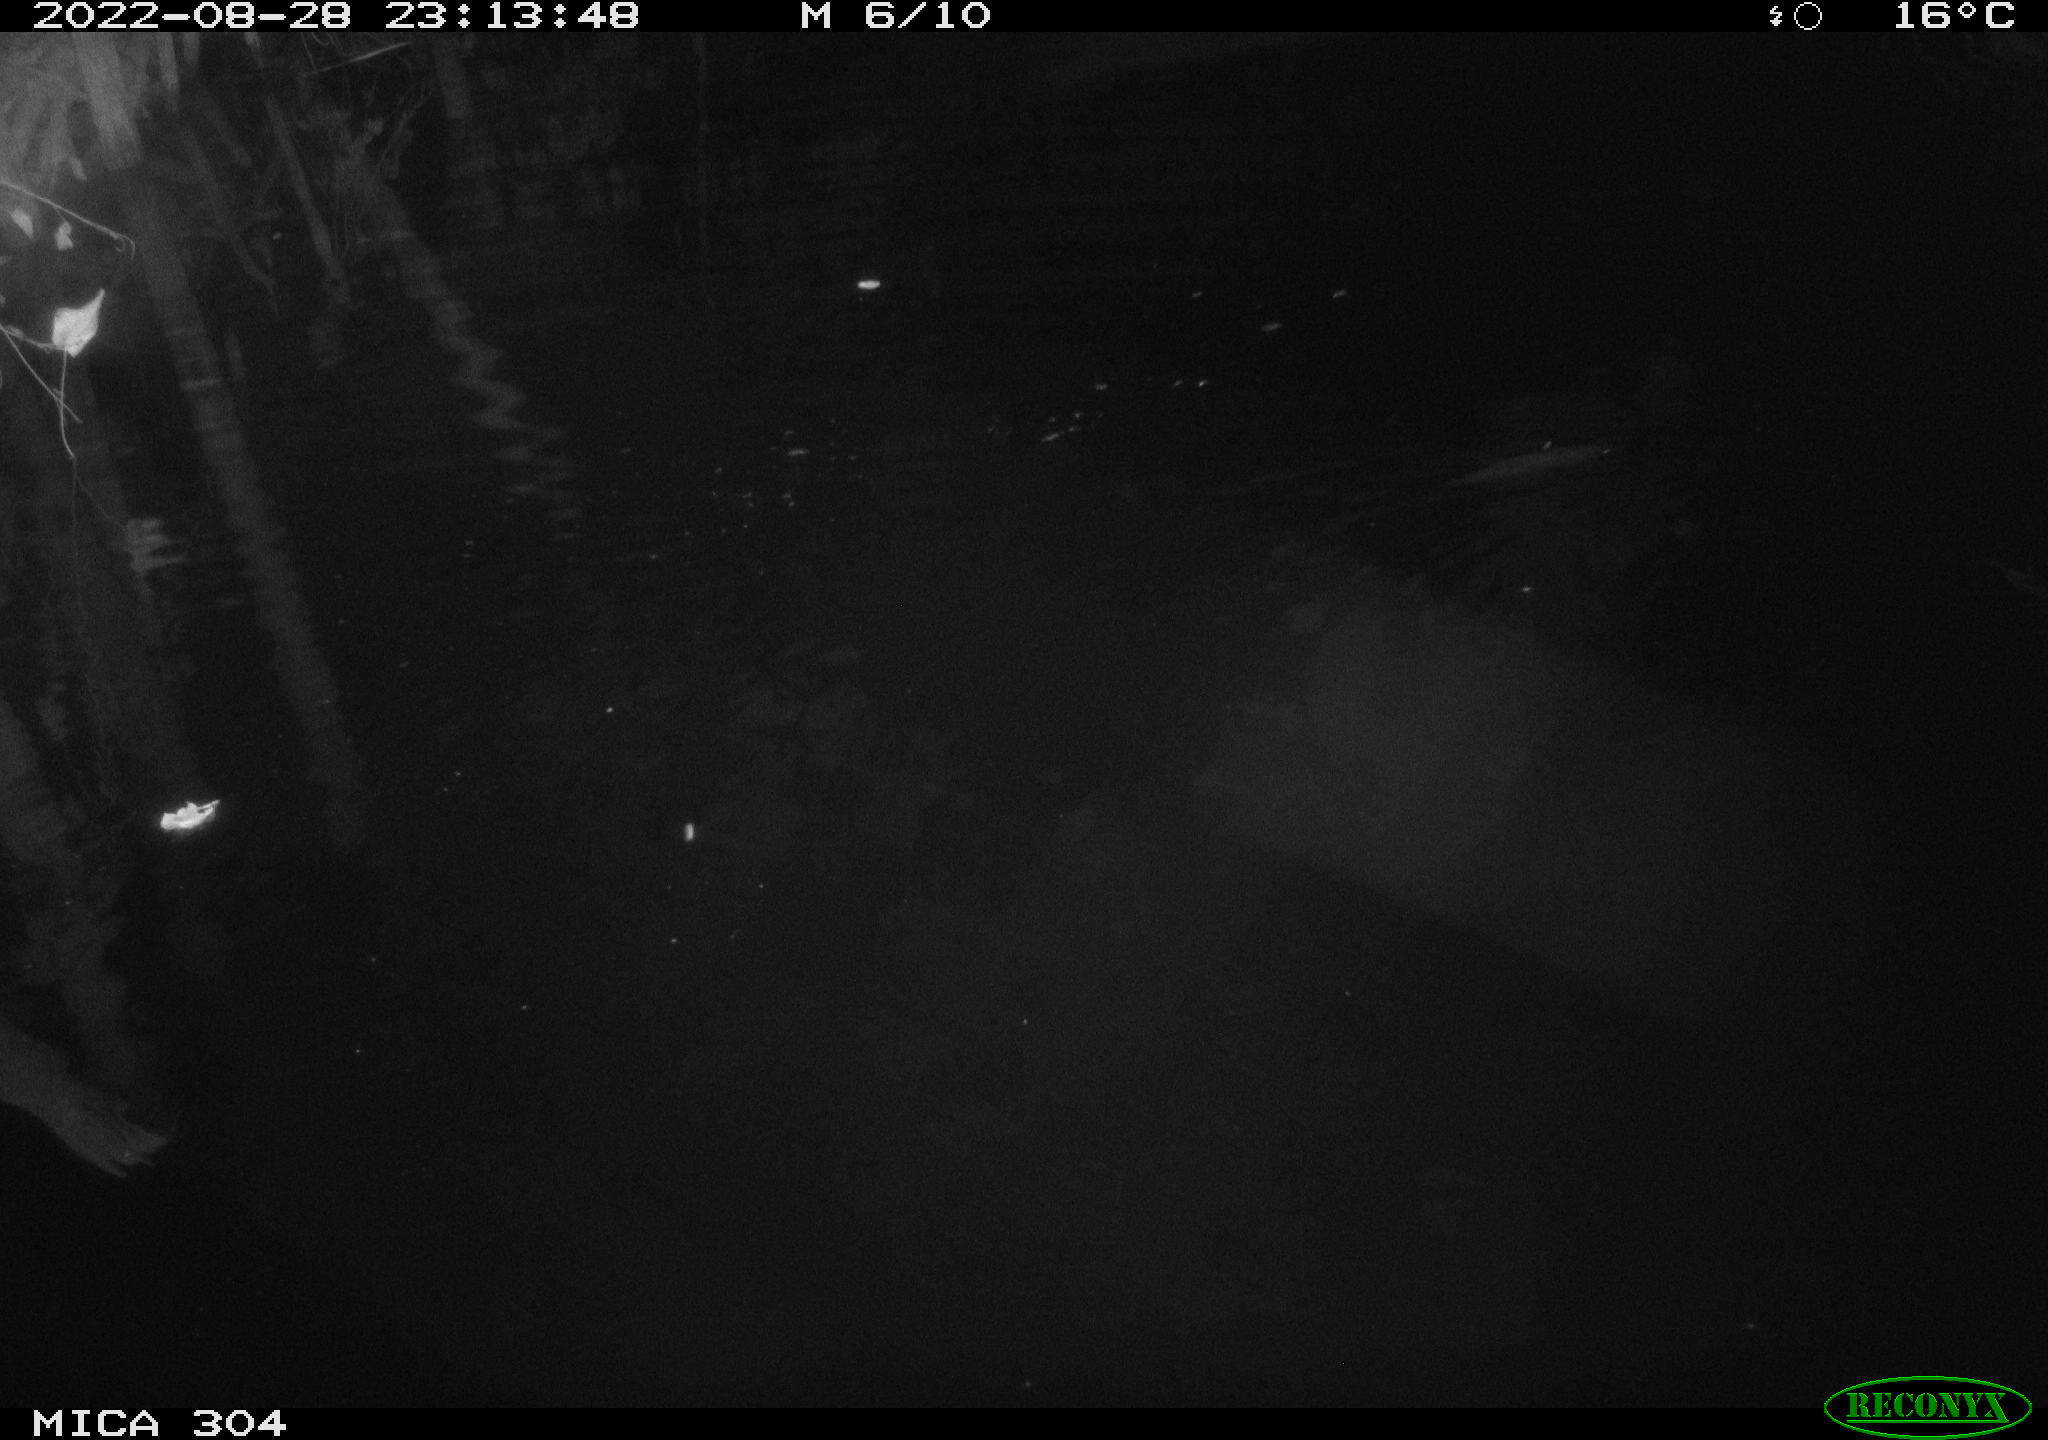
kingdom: Animalia
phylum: Chordata
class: Mammalia
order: Rodentia
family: Muridae
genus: Rattus
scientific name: Rattus norvegicus
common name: Brown rat
